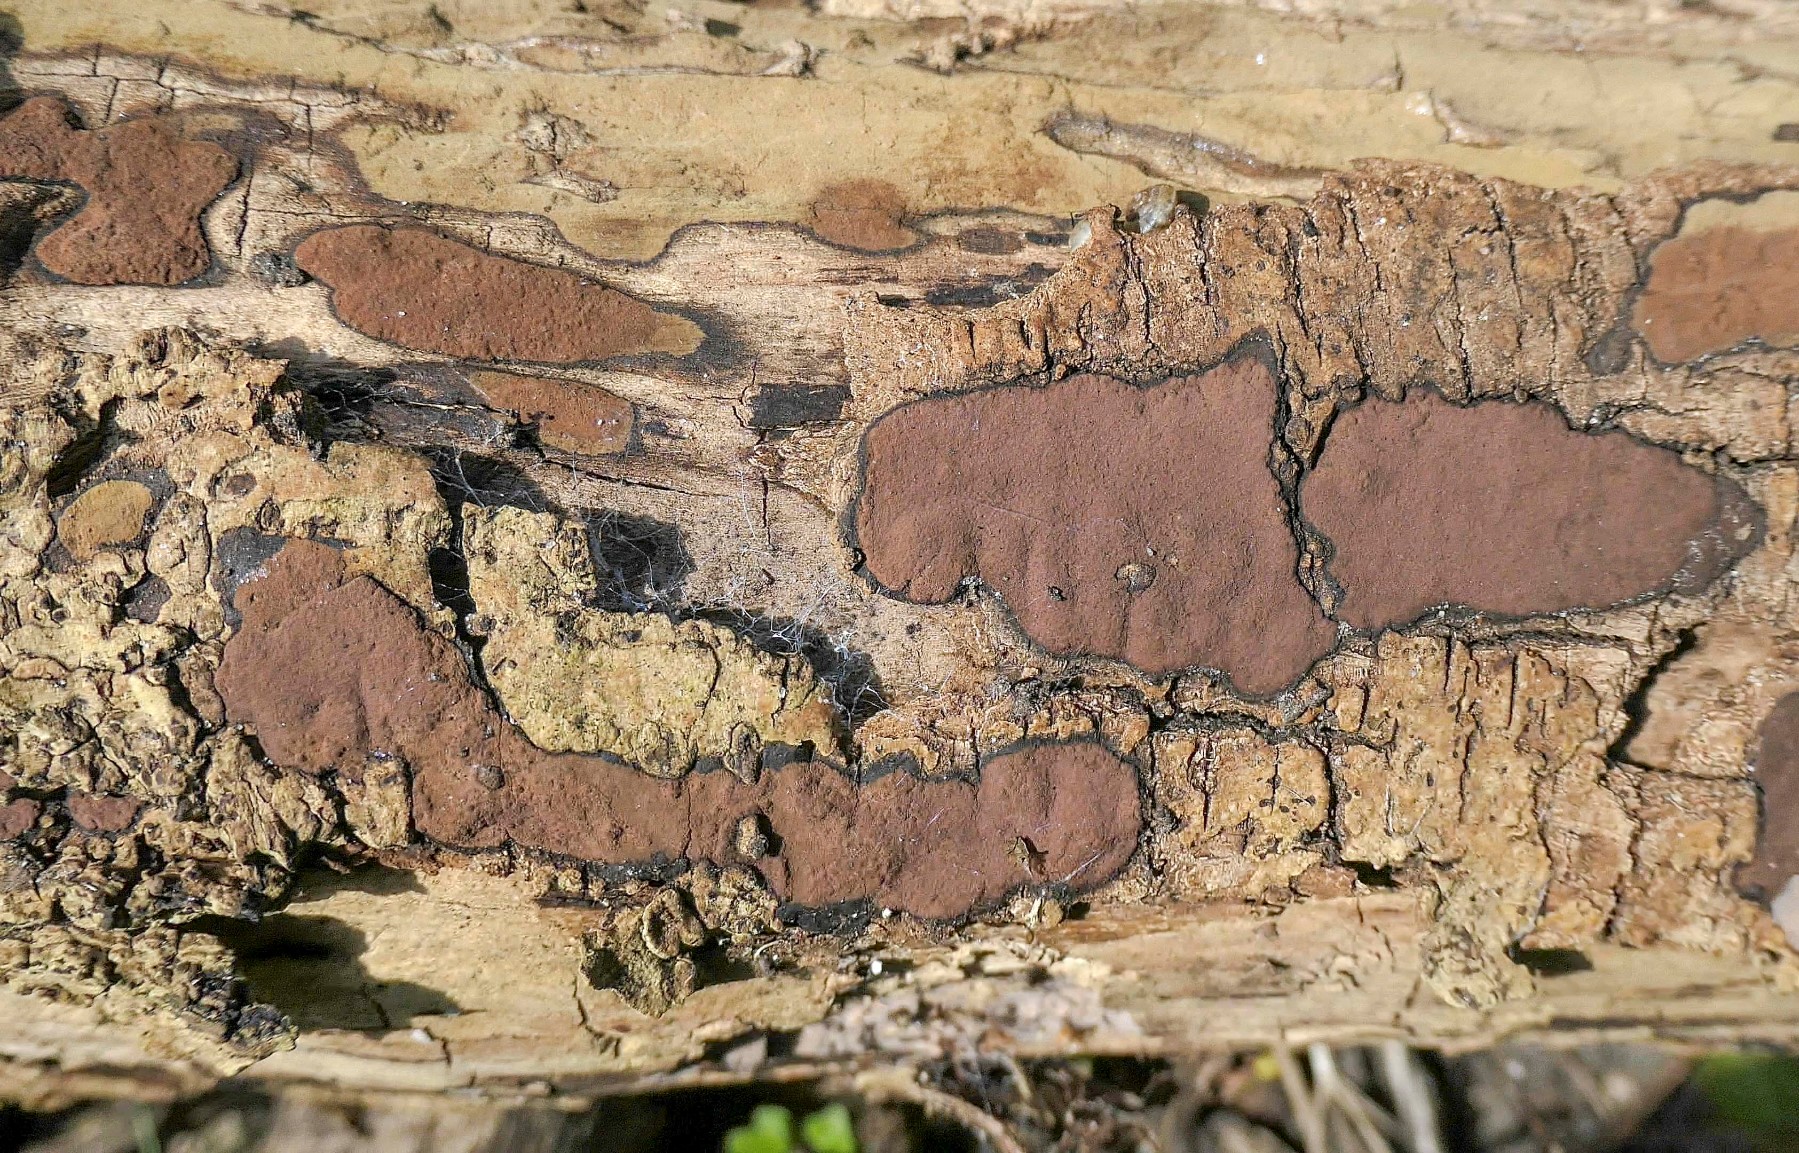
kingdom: Fungi
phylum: Ascomycota
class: Sordariomycetes
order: Xylariales
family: Hypoxylaceae
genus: Hypoxylon
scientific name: Hypoxylon petriniae
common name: nedsænket kulbær
